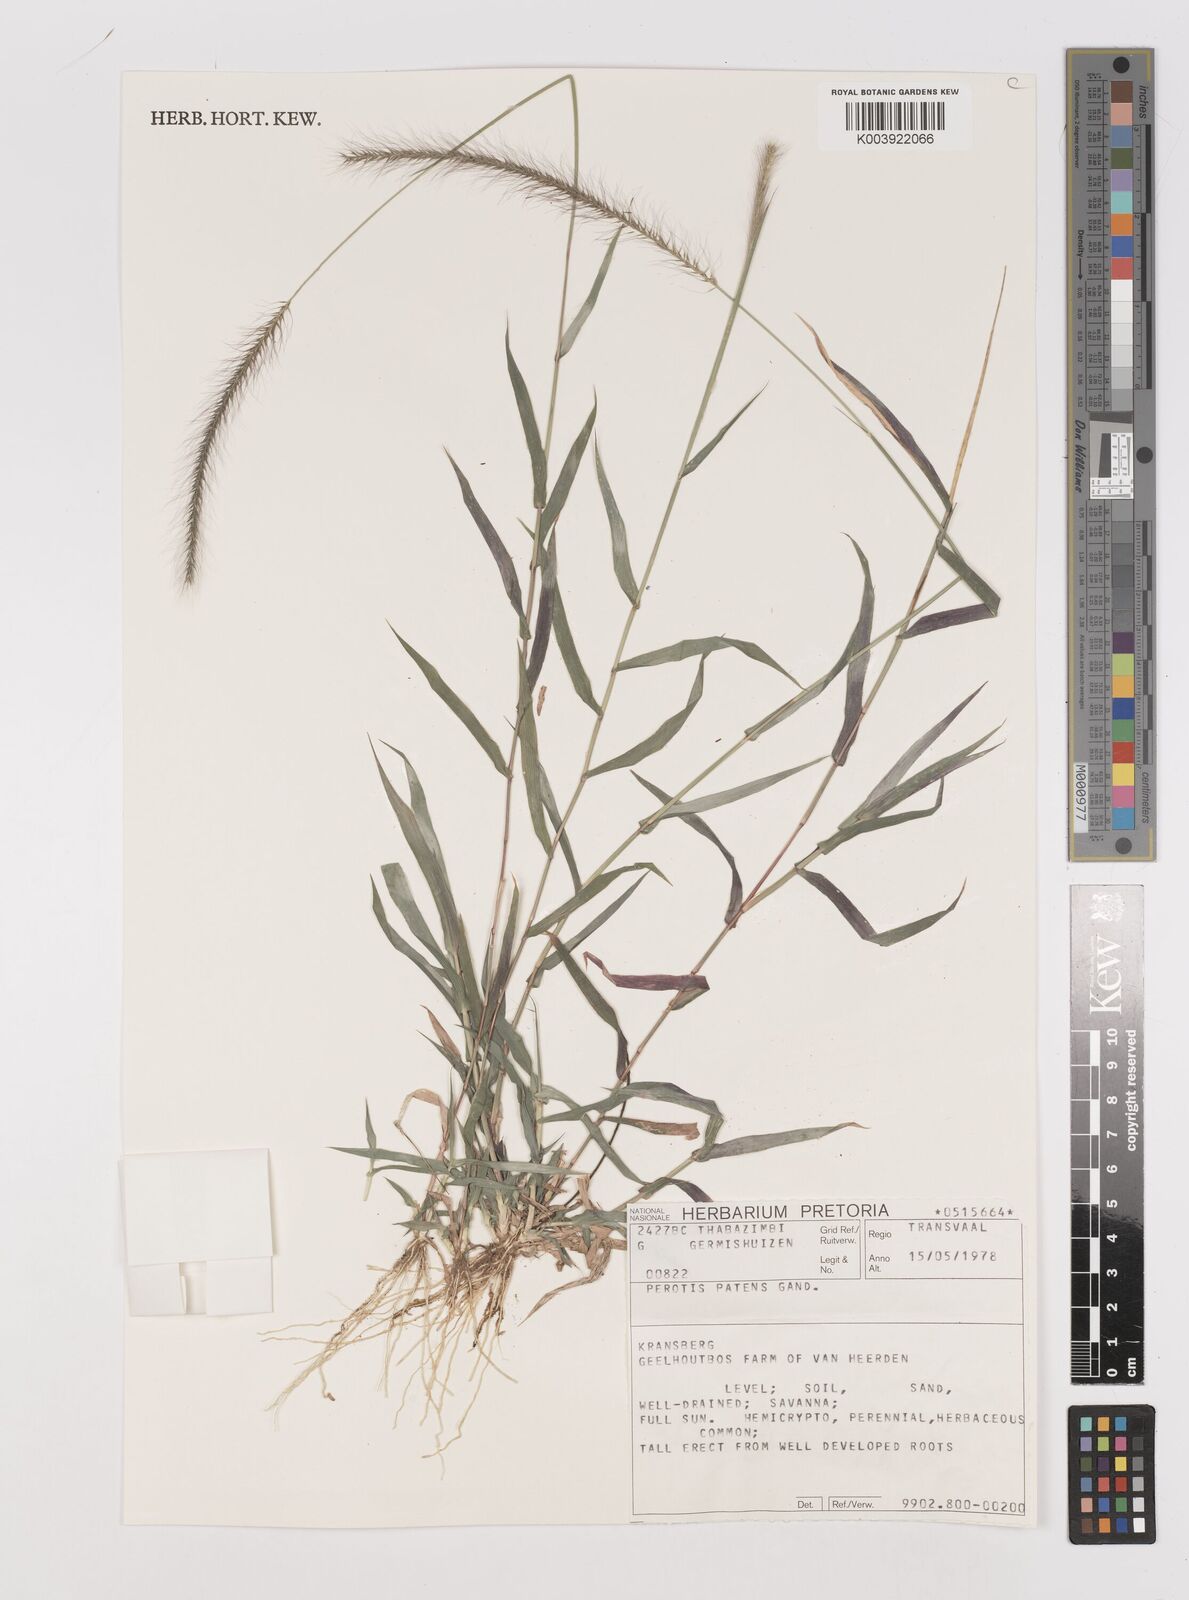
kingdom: Plantae
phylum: Tracheophyta
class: Liliopsida
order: Poales
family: Poaceae
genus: Perotis
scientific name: Perotis patens
